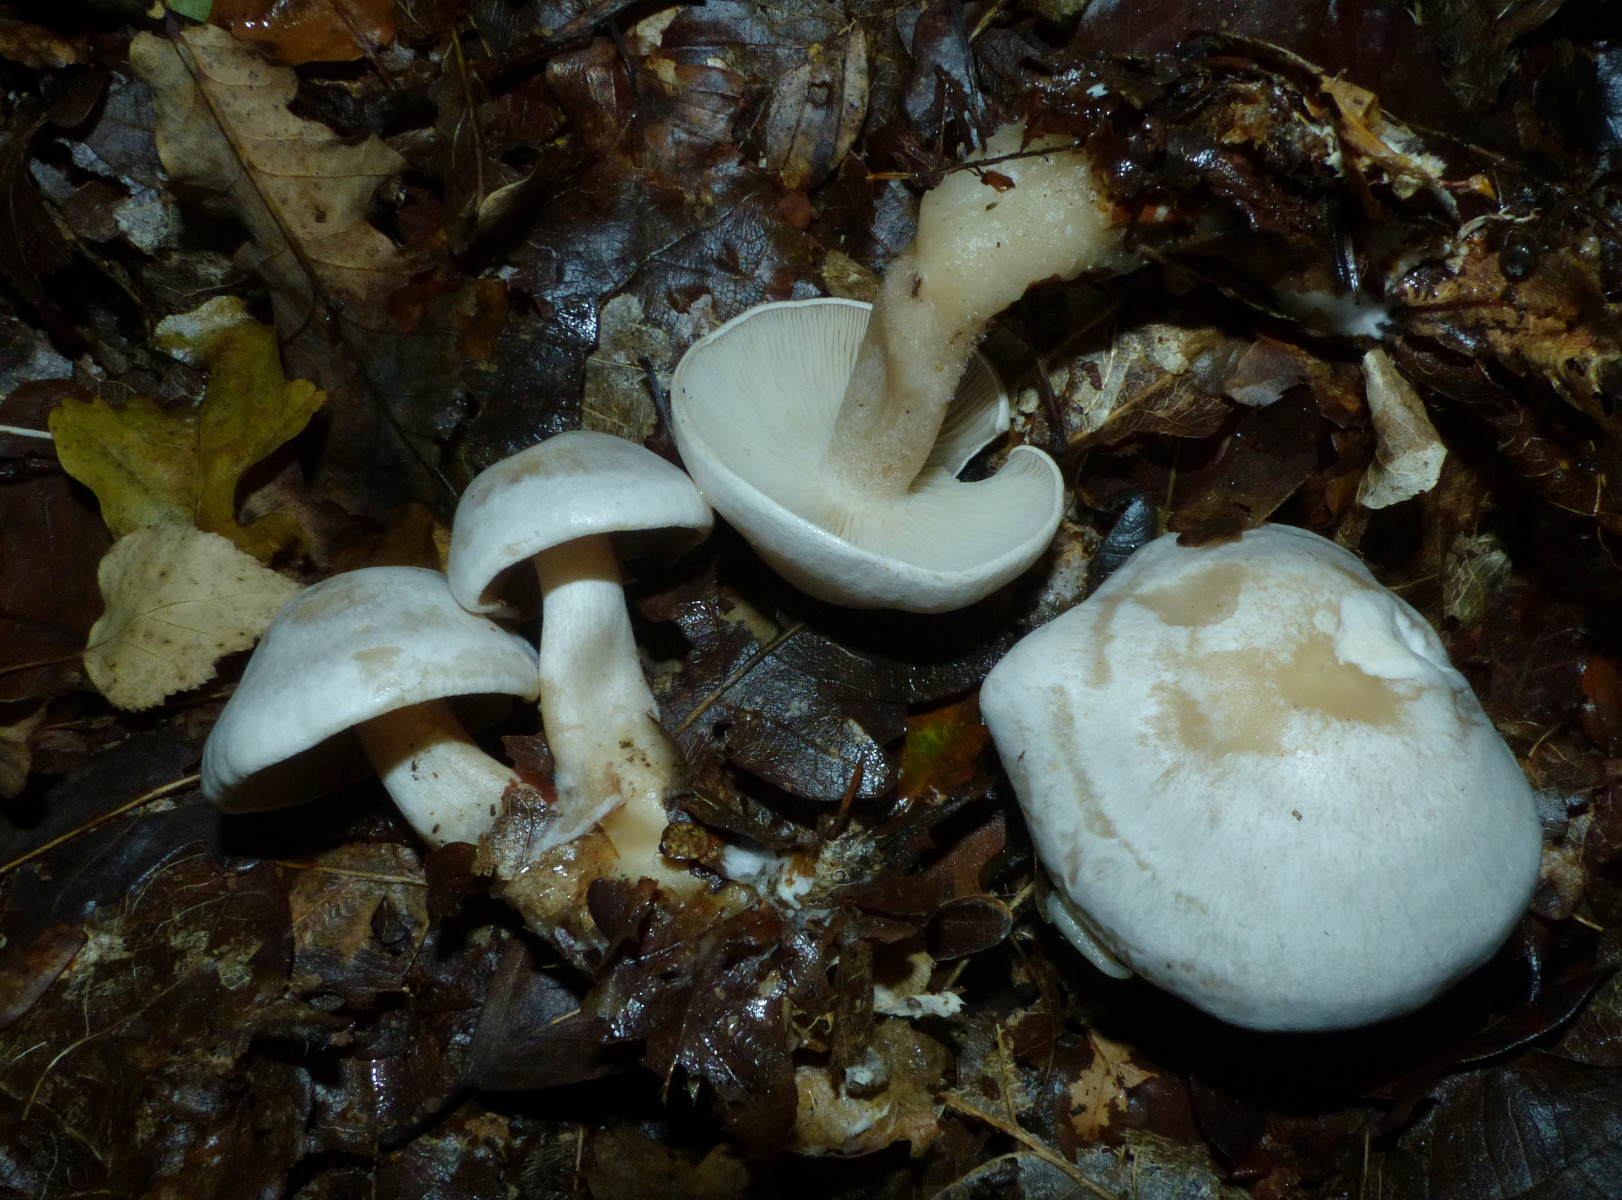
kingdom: Fungi
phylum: Basidiomycota
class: Agaricomycetes
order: Agaricales
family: Tricholomataceae
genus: Clitocybe
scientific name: Clitocybe phyllophila
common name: løv-tragthat
